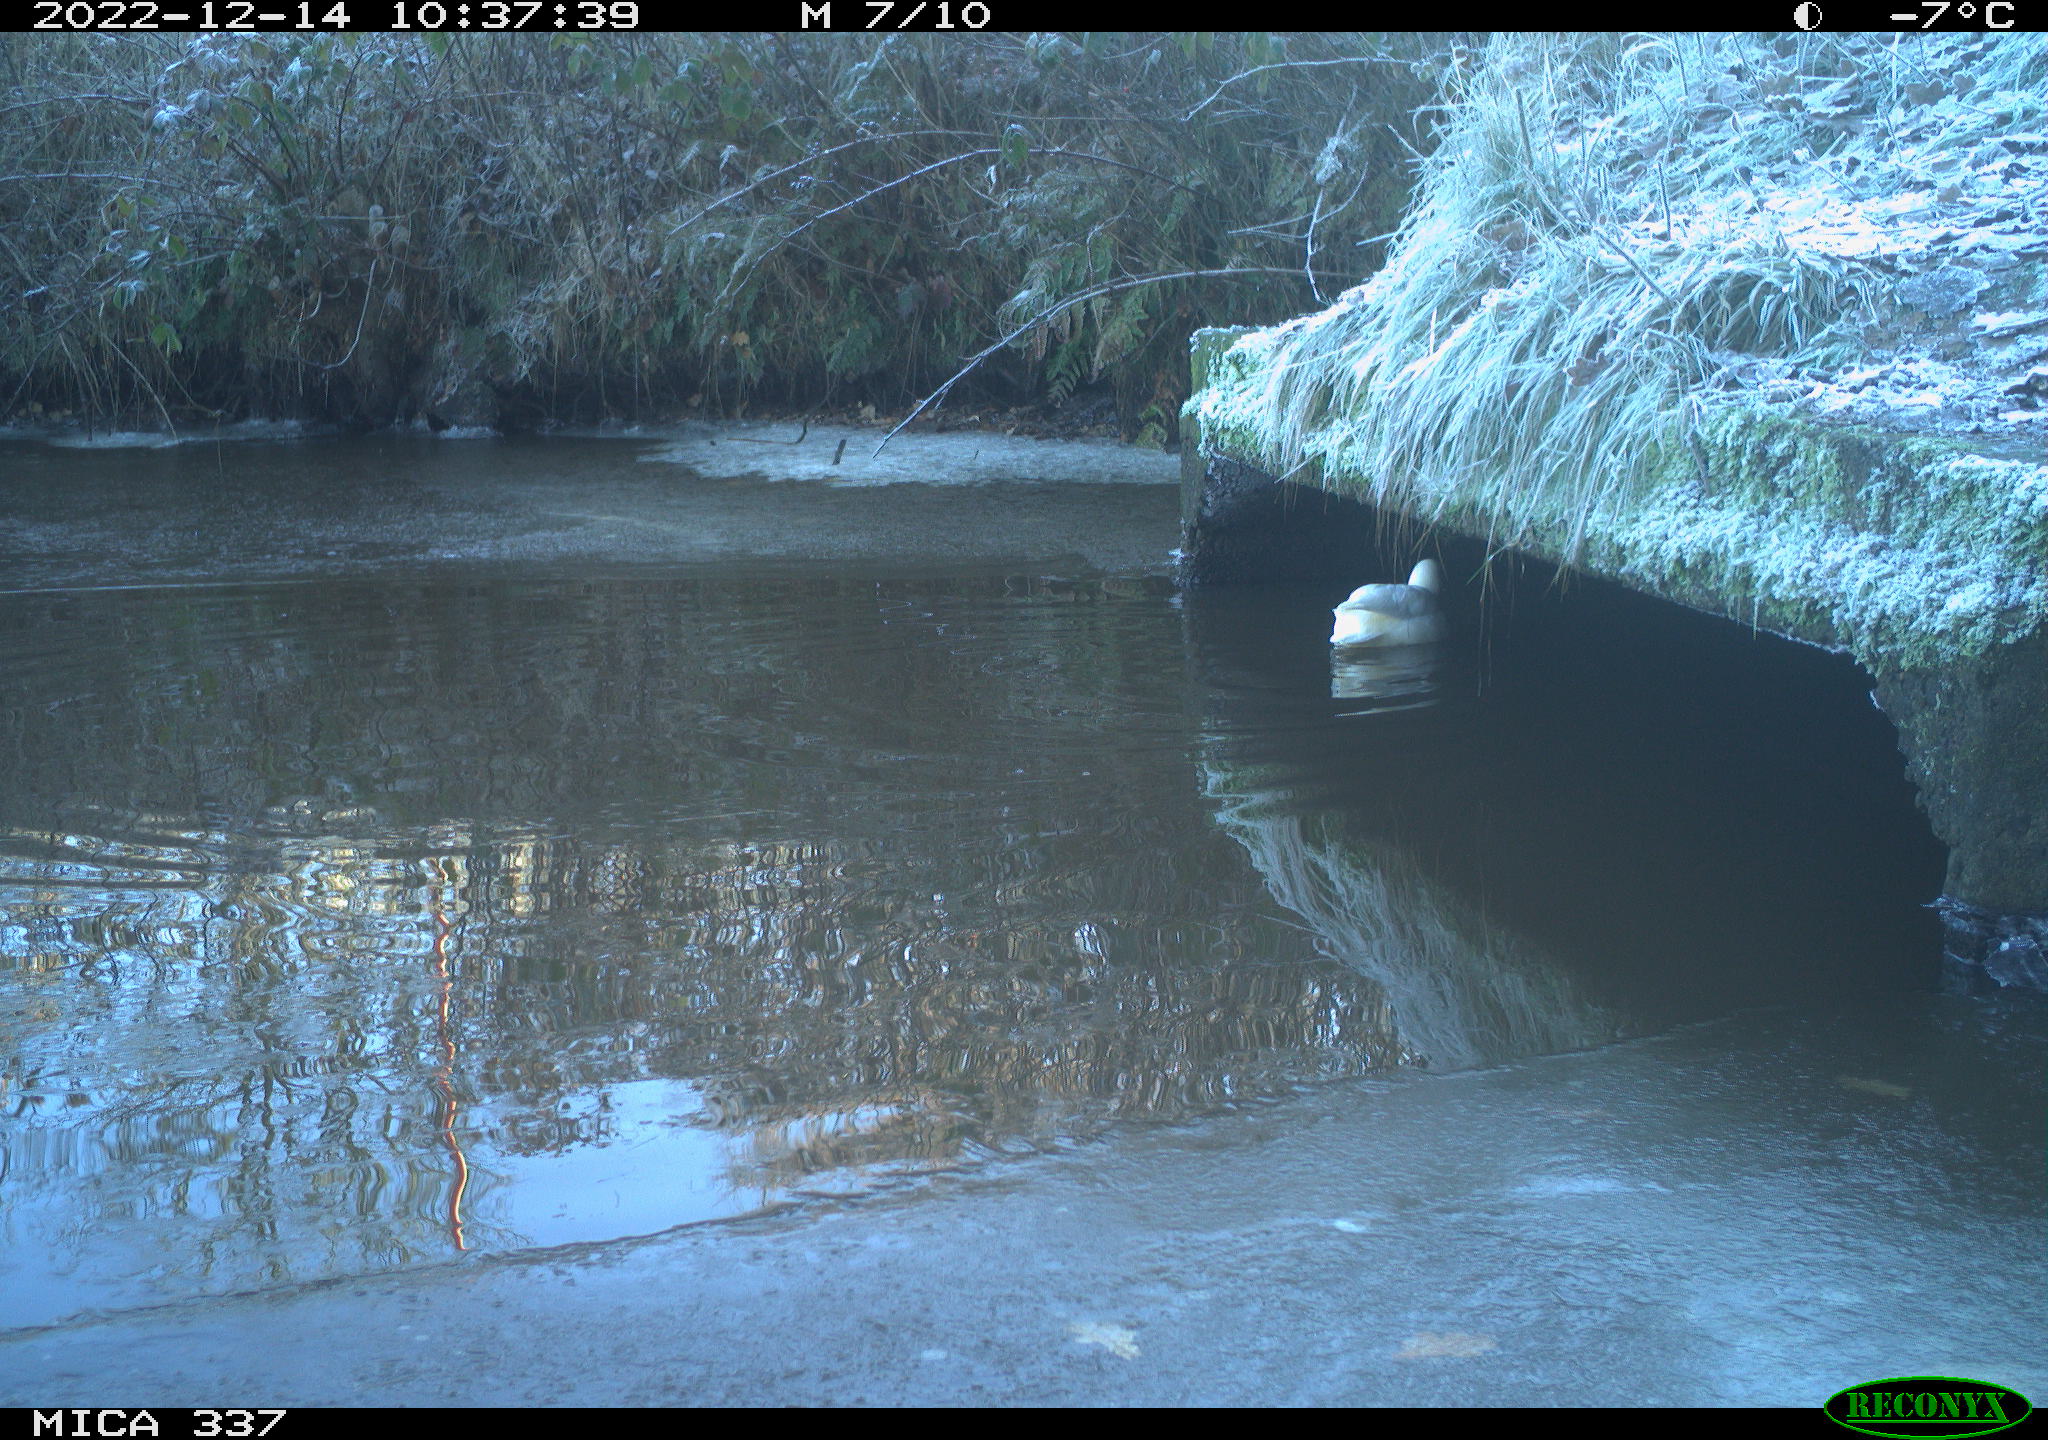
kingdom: Animalia
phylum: Chordata
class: Aves
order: Anseriformes
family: Anatidae
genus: Anas
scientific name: Anas
